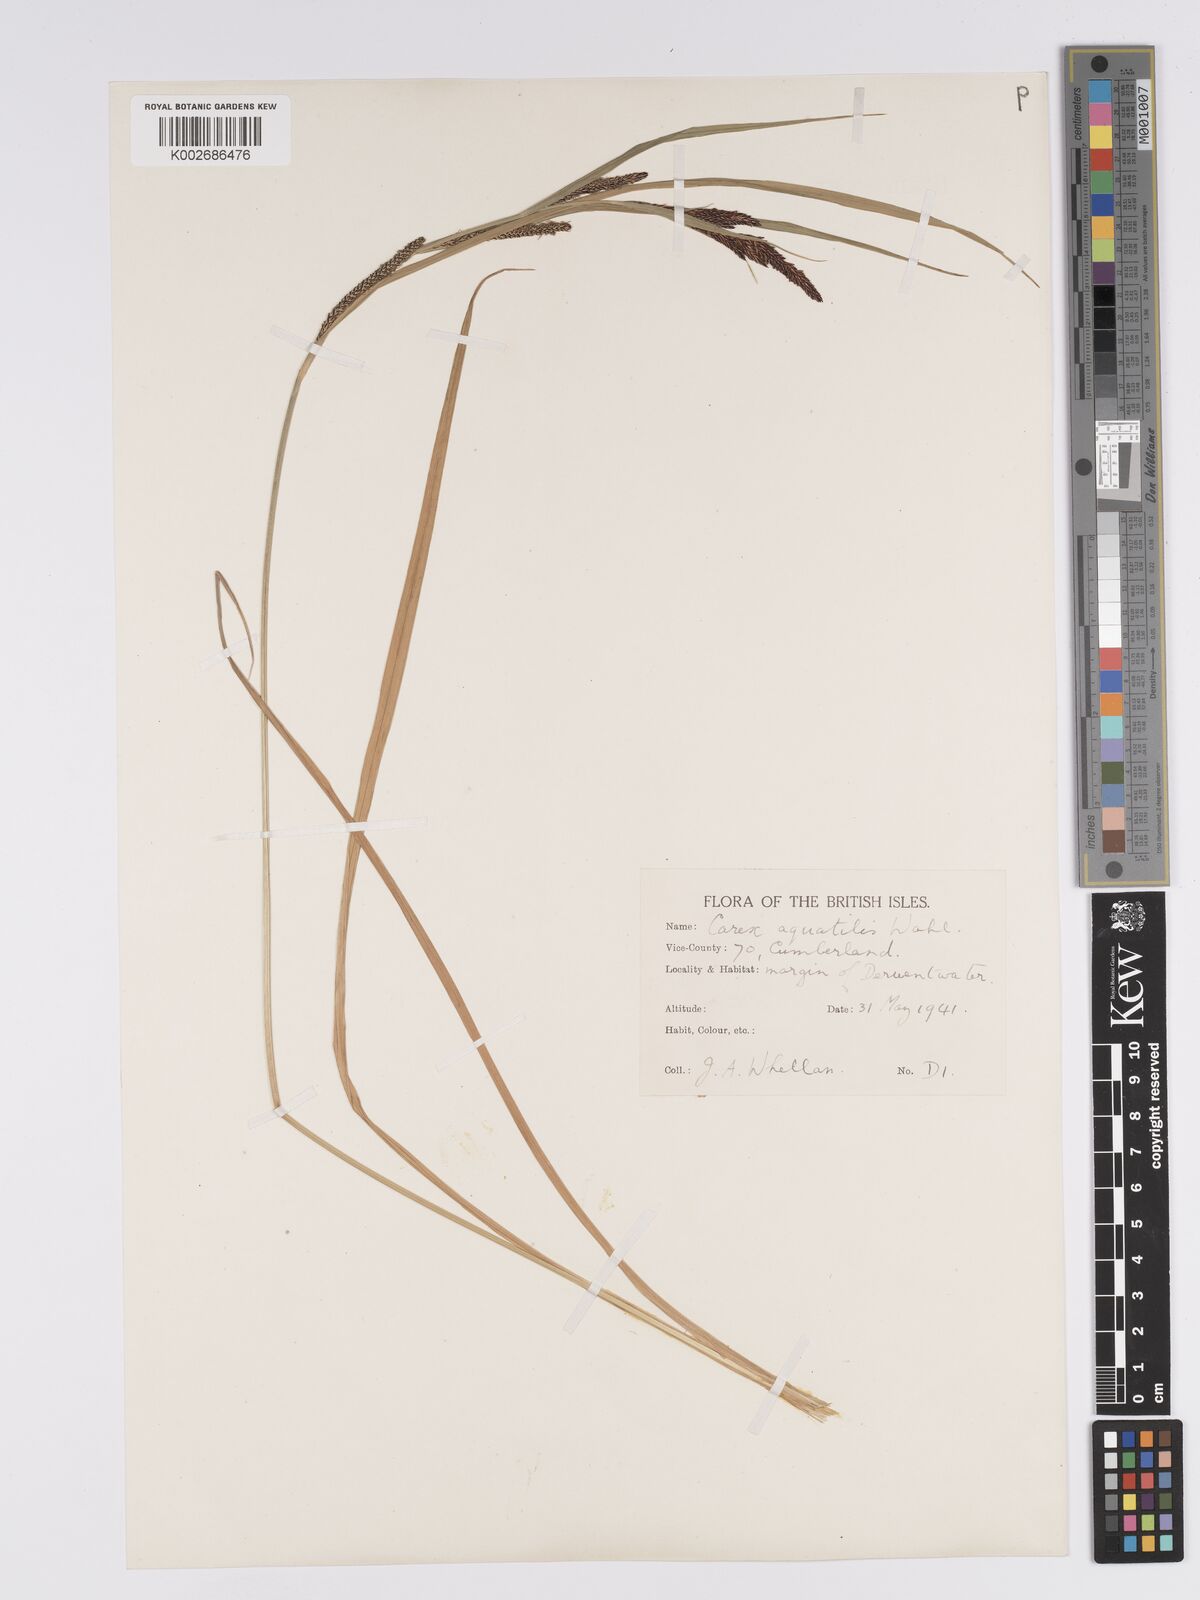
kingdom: Plantae
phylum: Tracheophyta
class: Liliopsida
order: Poales
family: Cyperaceae
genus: Carex
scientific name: Carex aquatilis
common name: Water sedge
